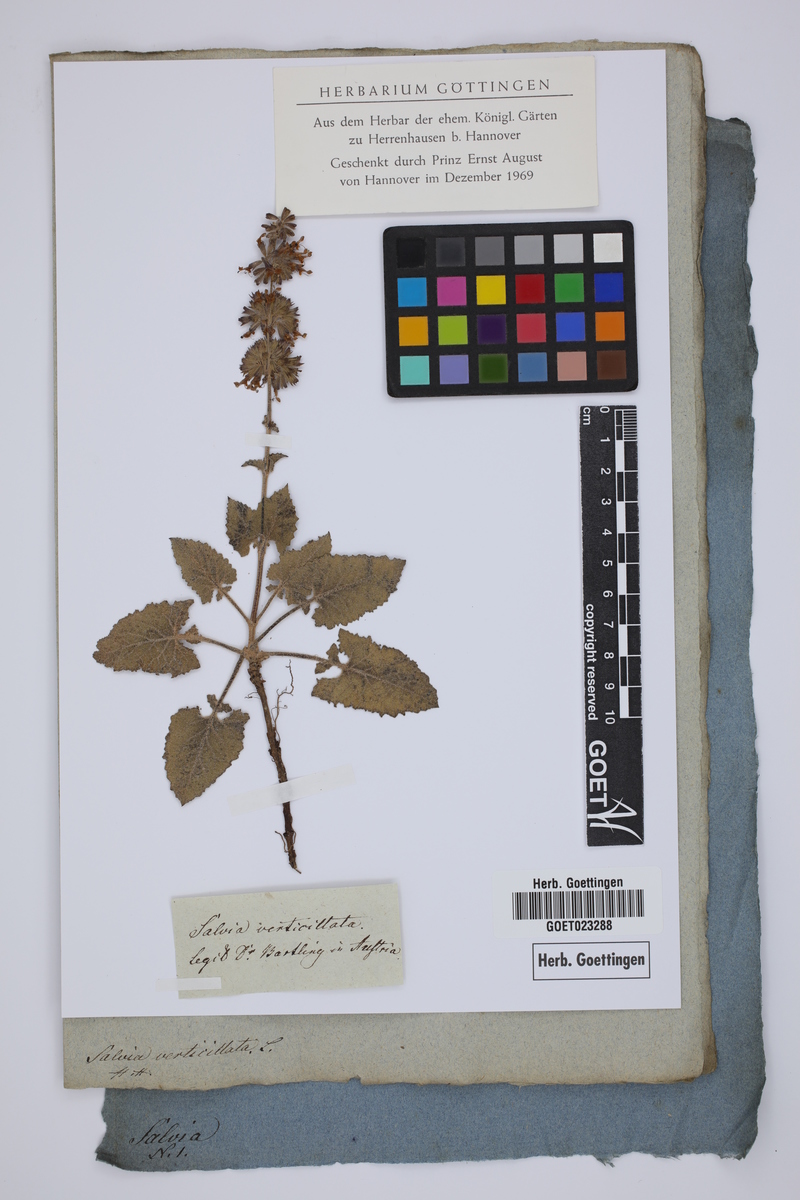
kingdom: Plantae
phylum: Tracheophyta
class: Magnoliopsida
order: Lamiales
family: Lamiaceae
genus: Salvia
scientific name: Salvia verticillata
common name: Whorled clary
